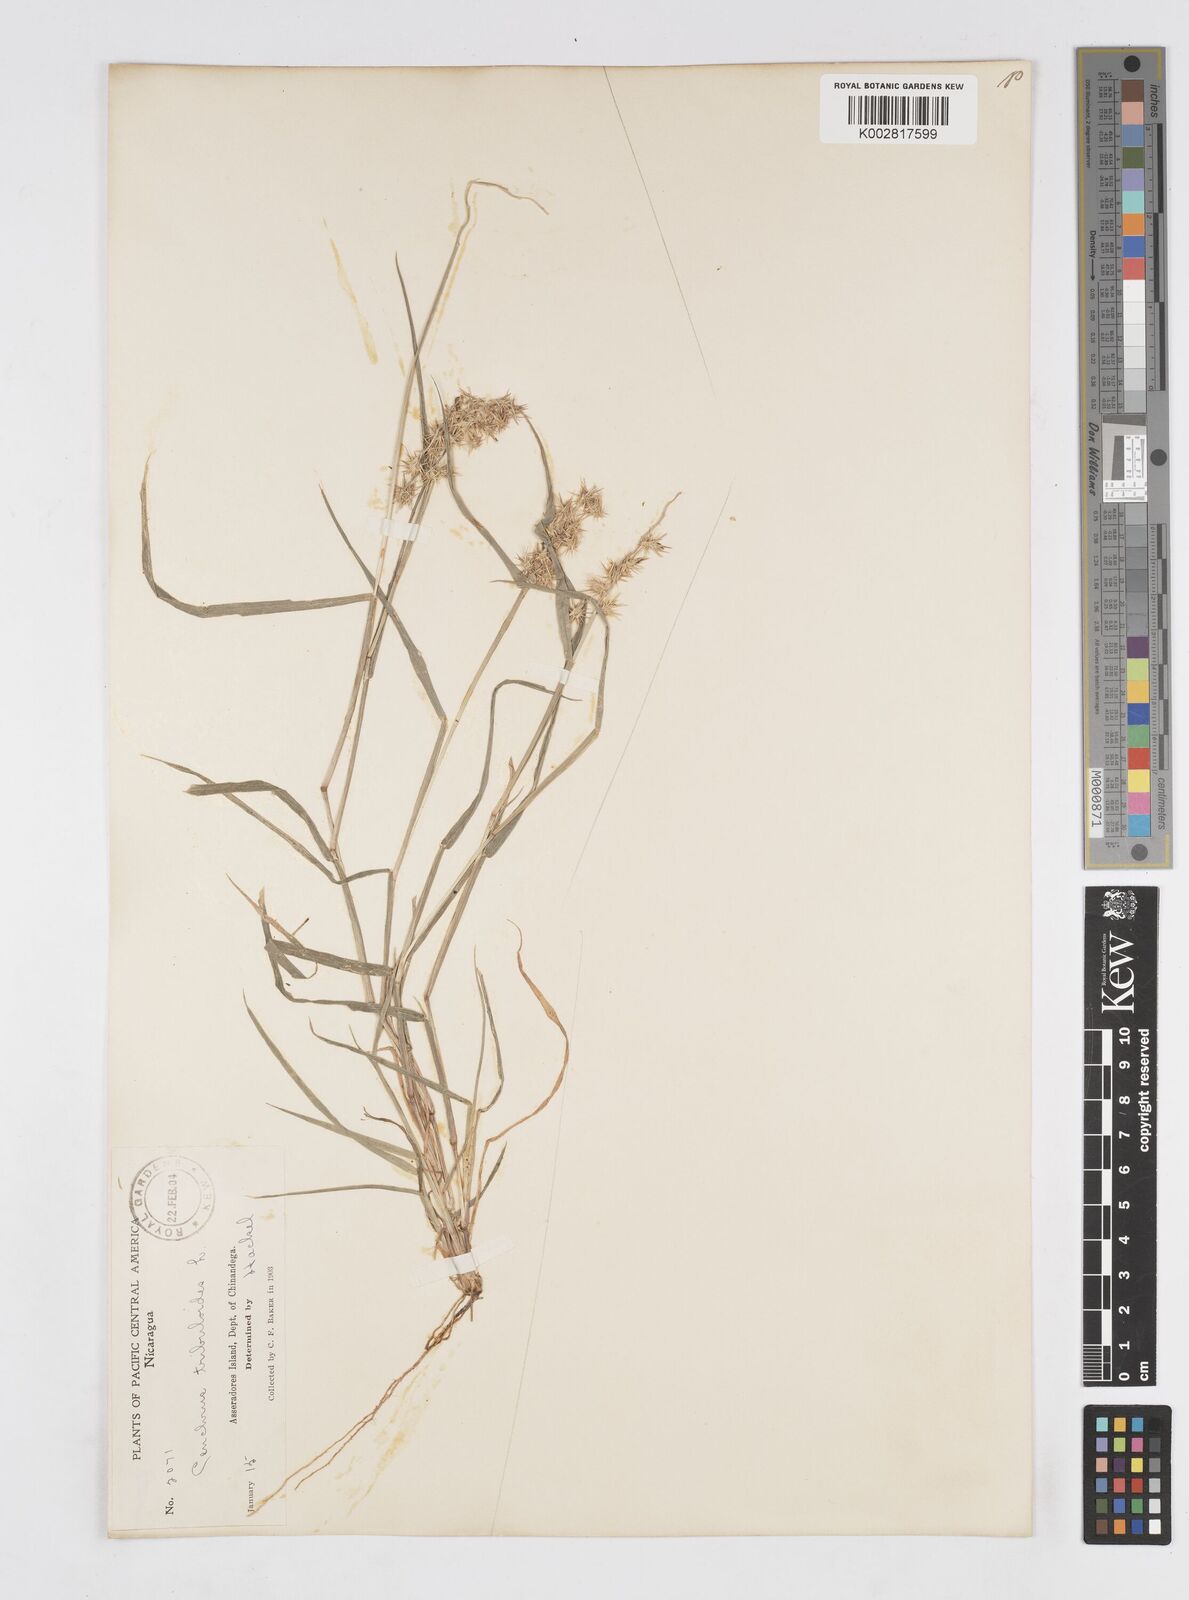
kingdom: Plantae
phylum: Tracheophyta
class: Liliopsida
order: Poales
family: Poaceae
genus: Cenchrus
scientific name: Cenchrus spinifex
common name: Coast sandbur
